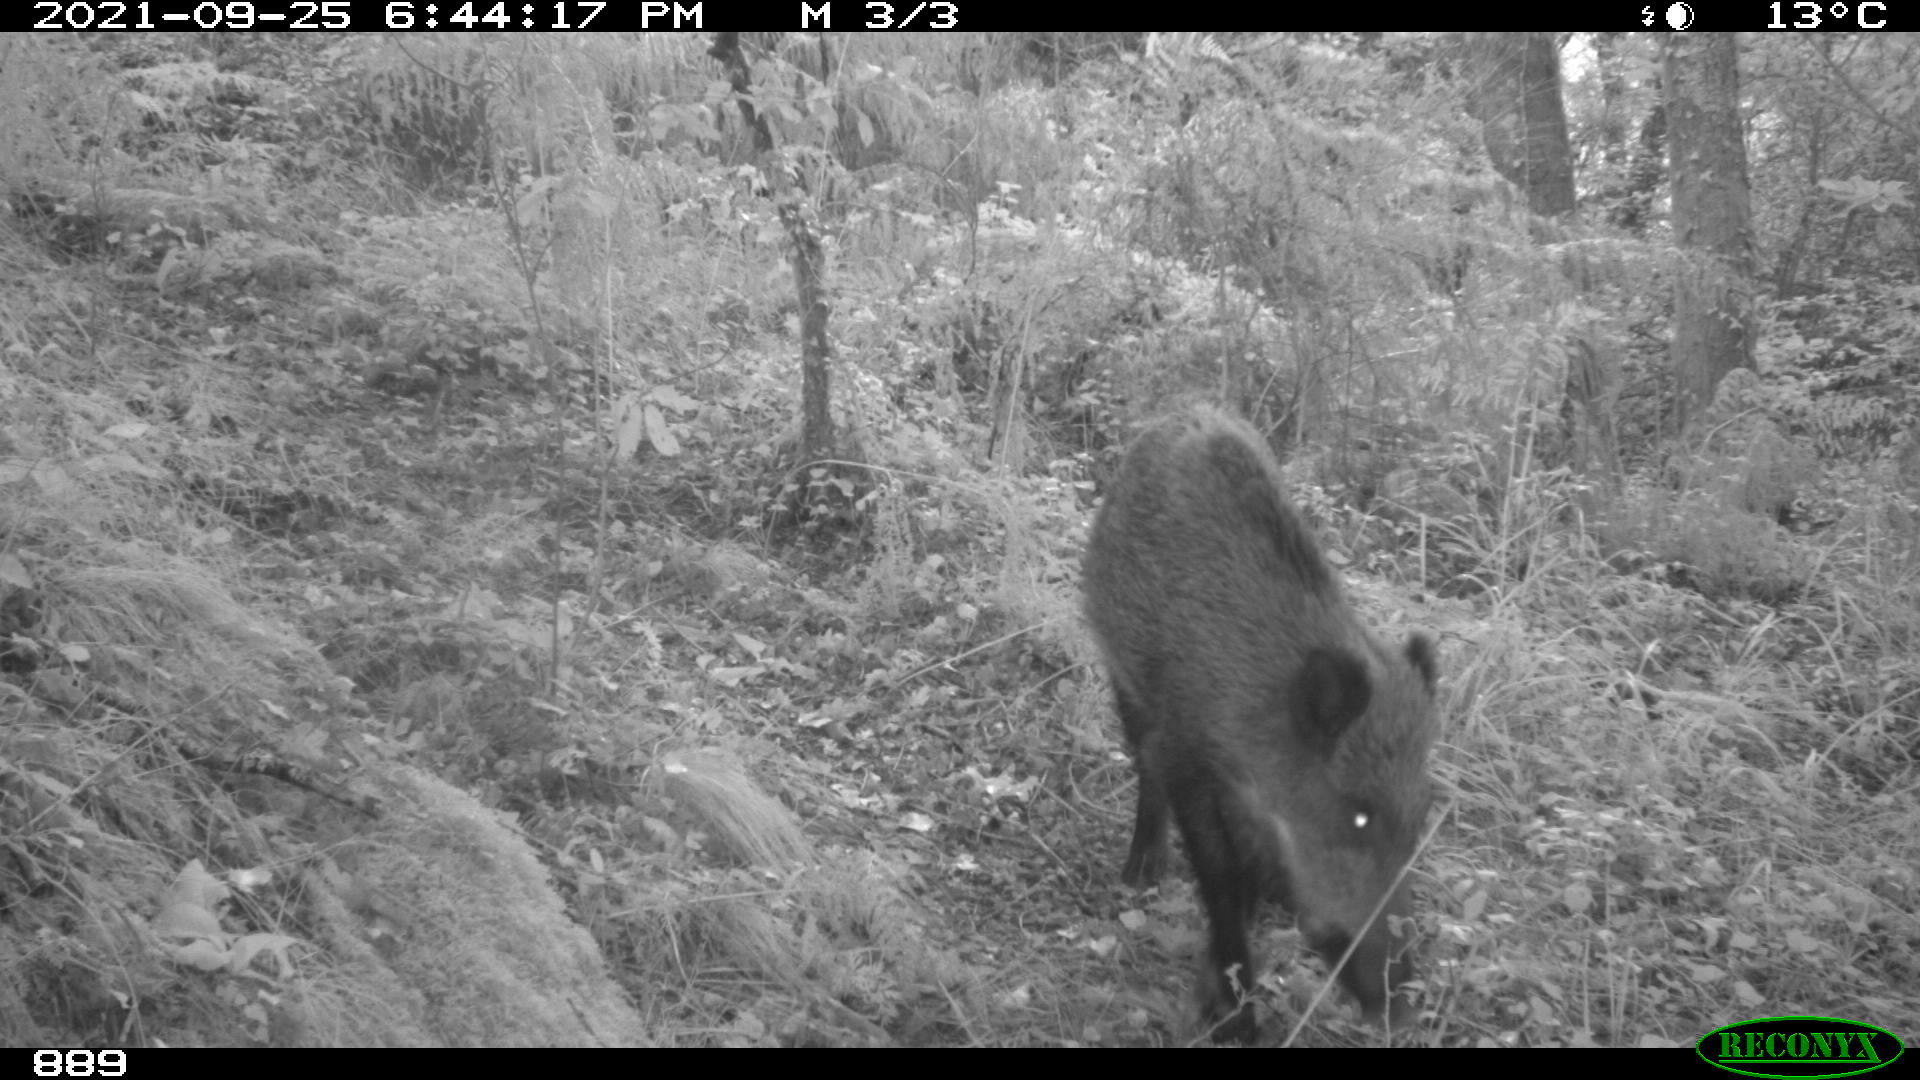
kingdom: Animalia
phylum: Chordata
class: Mammalia
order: Artiodactyla
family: Suidae
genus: Sus
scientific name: Sus scrofa
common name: Wild boar
